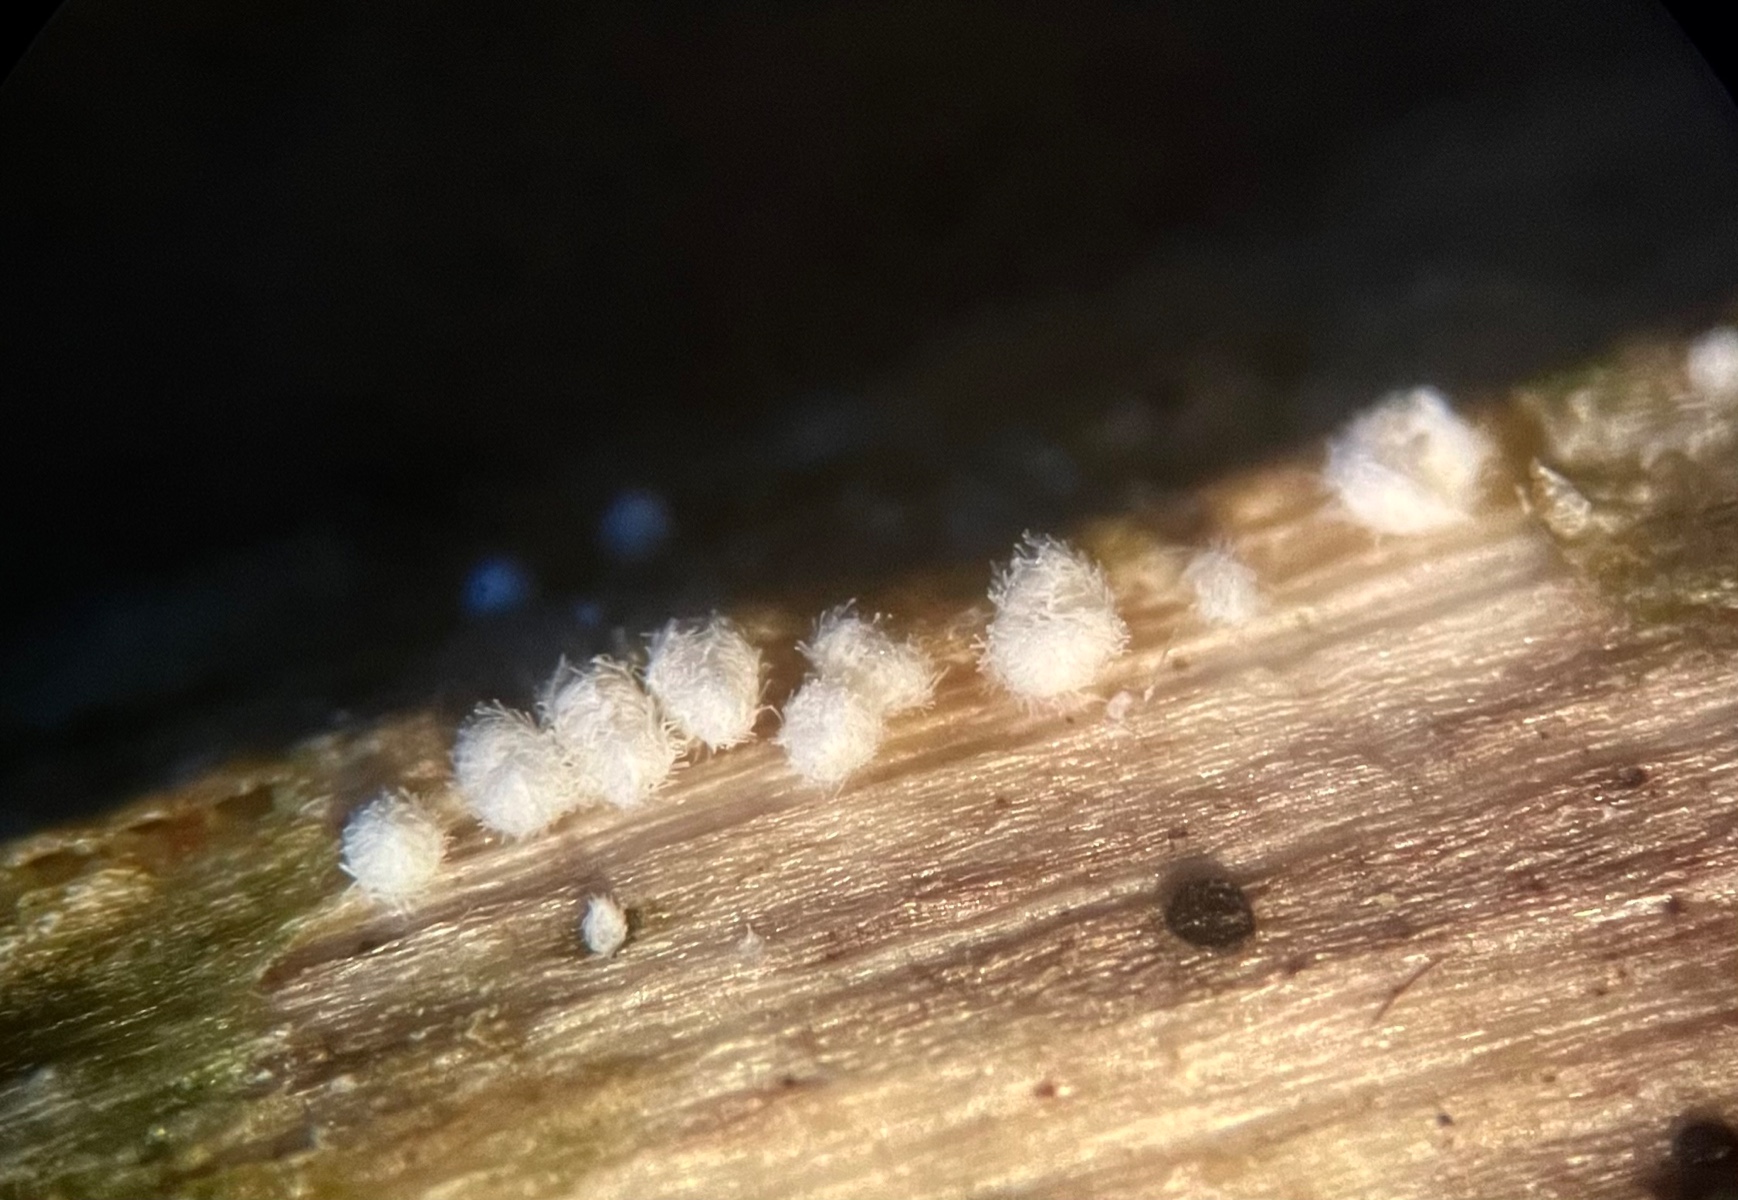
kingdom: Fungi
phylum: Basidiomycota
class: Agaricomycetes
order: Agaricales
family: Niaceae
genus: Lachnella
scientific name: Lachnella villosa
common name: hvid frynserede
